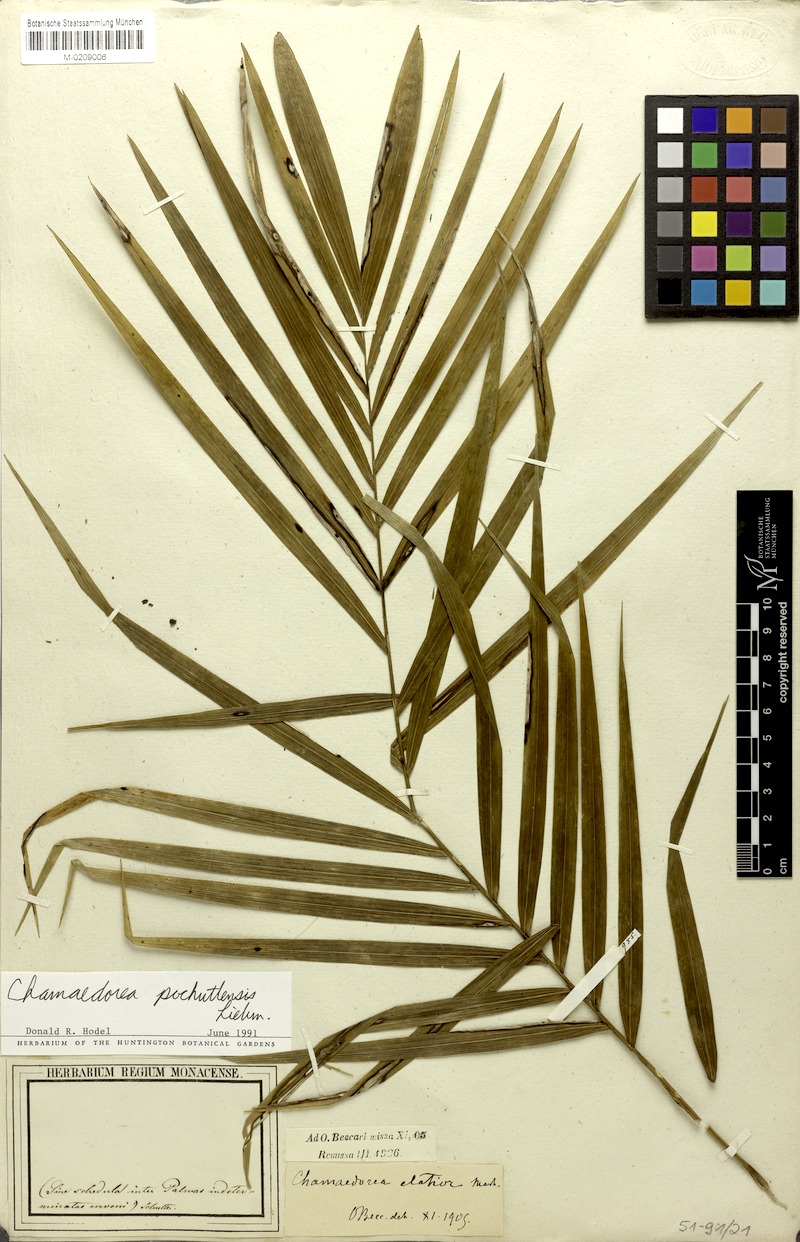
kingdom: Plantae
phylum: Tracheophyta
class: Liliopsida
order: Arecales
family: Arecaceae
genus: Chamaedorea
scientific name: Chamaedorea pochutlensis
